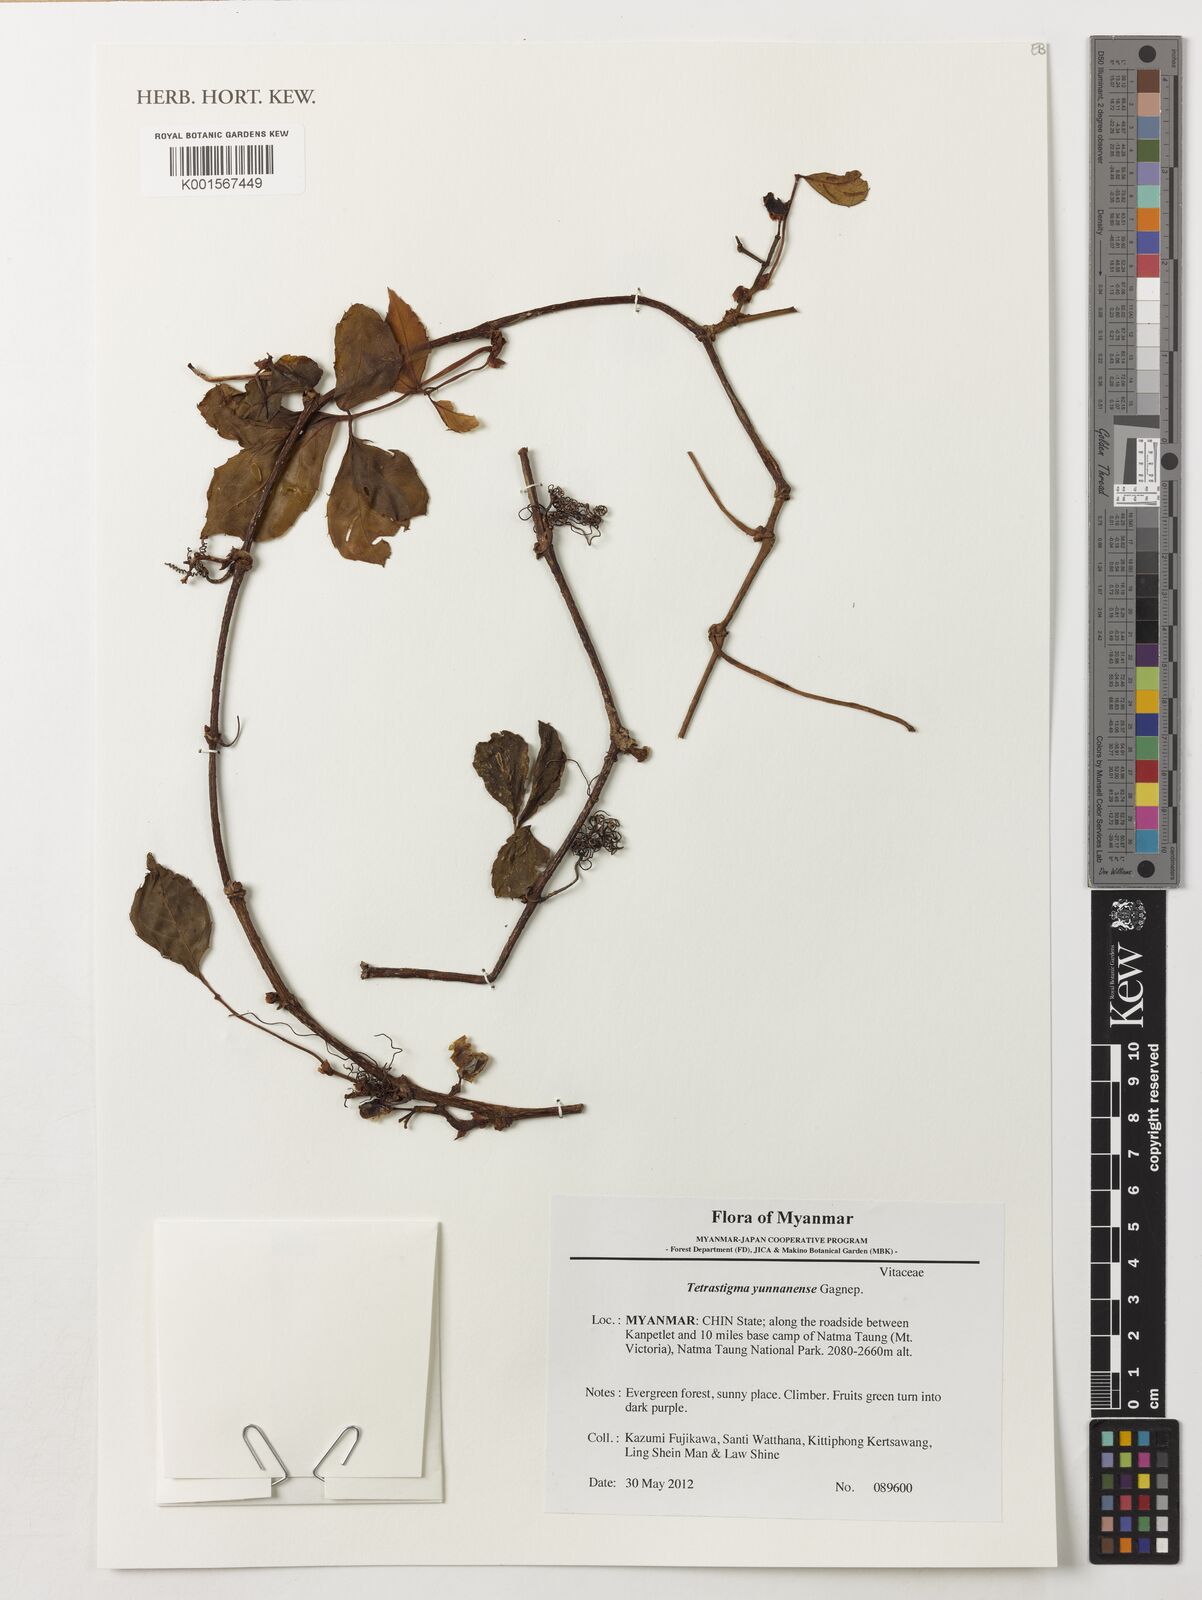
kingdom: Plantae
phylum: Tracheophyta
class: Magnoliopsida
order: Vitales
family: Vitaceae
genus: Tetrastigma
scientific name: Tetrastigma yunnanense
